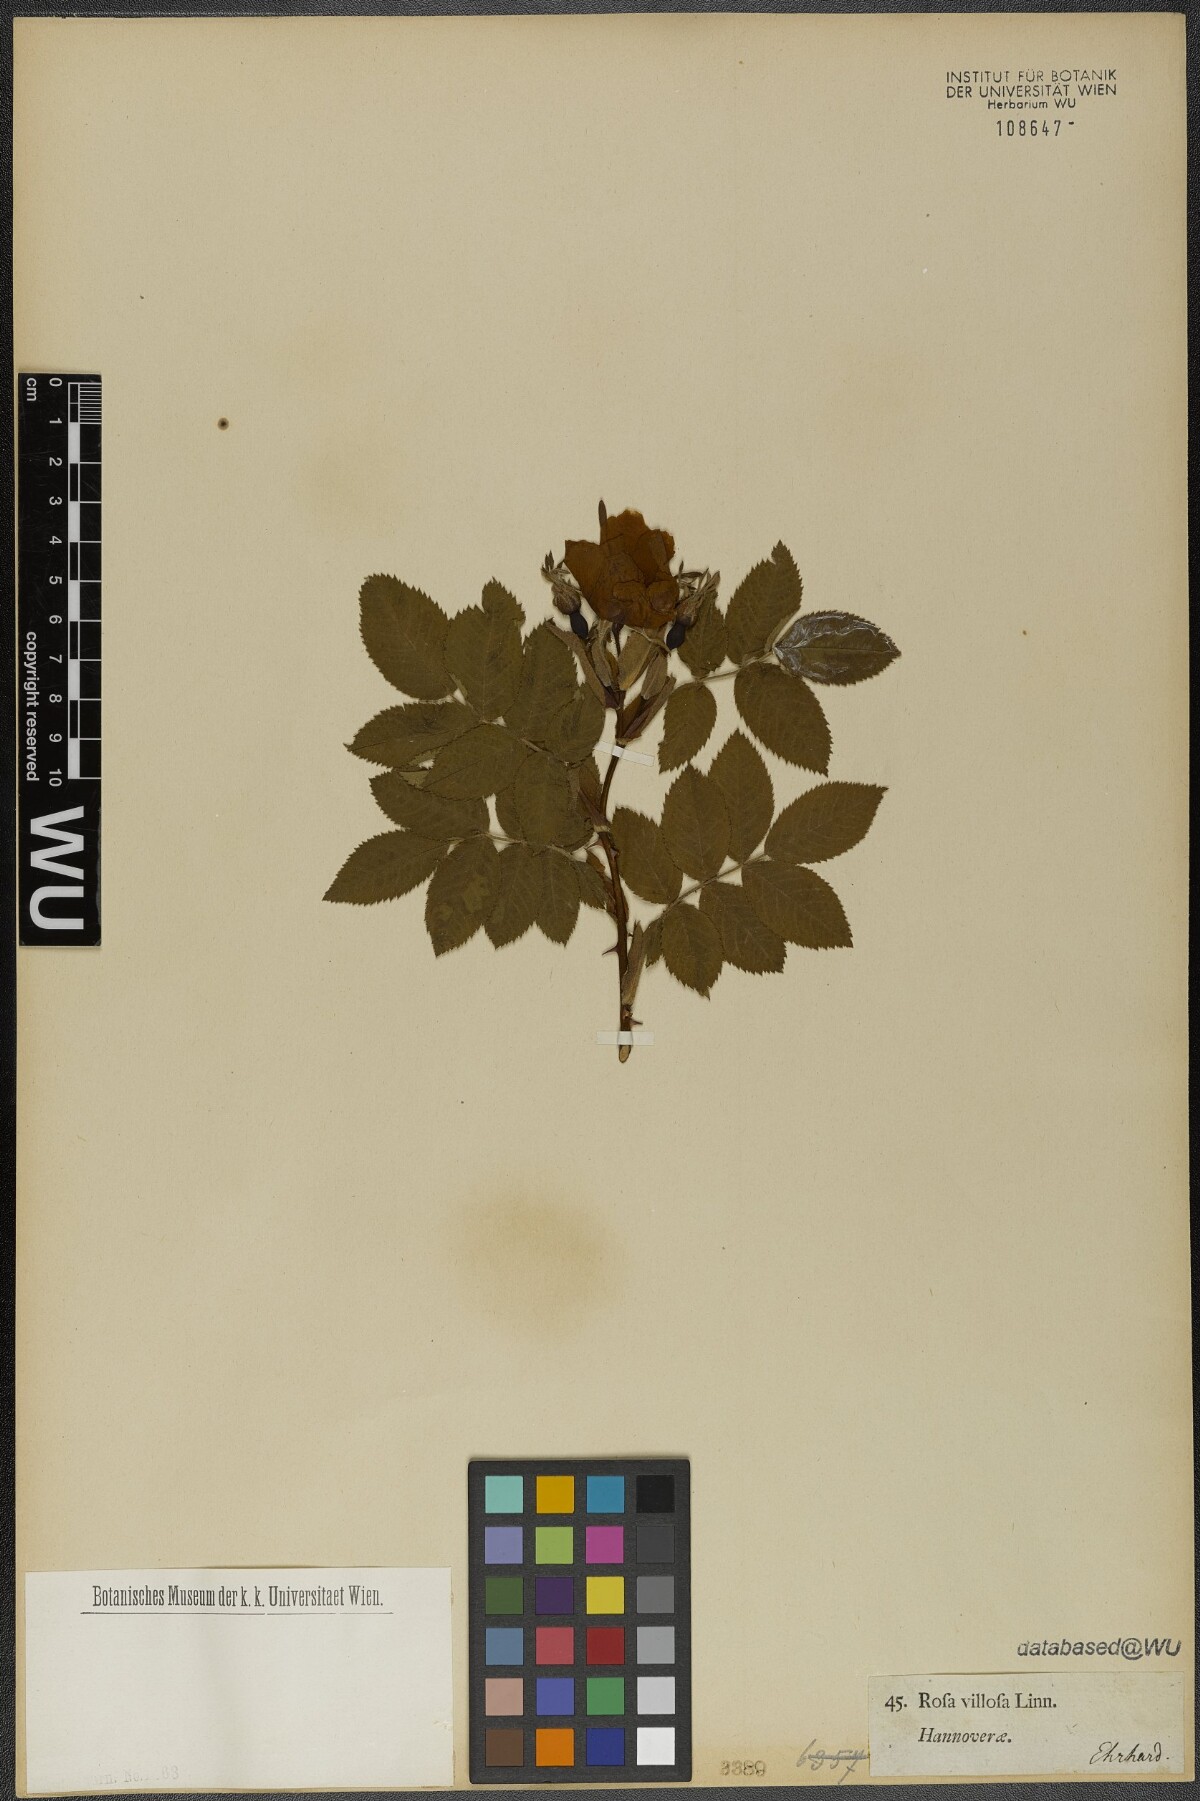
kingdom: Plantae
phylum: Tracheophyta
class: Magnoliopsida
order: Rosales
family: Rosaceae
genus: Rosa
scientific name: Rosa villosa
